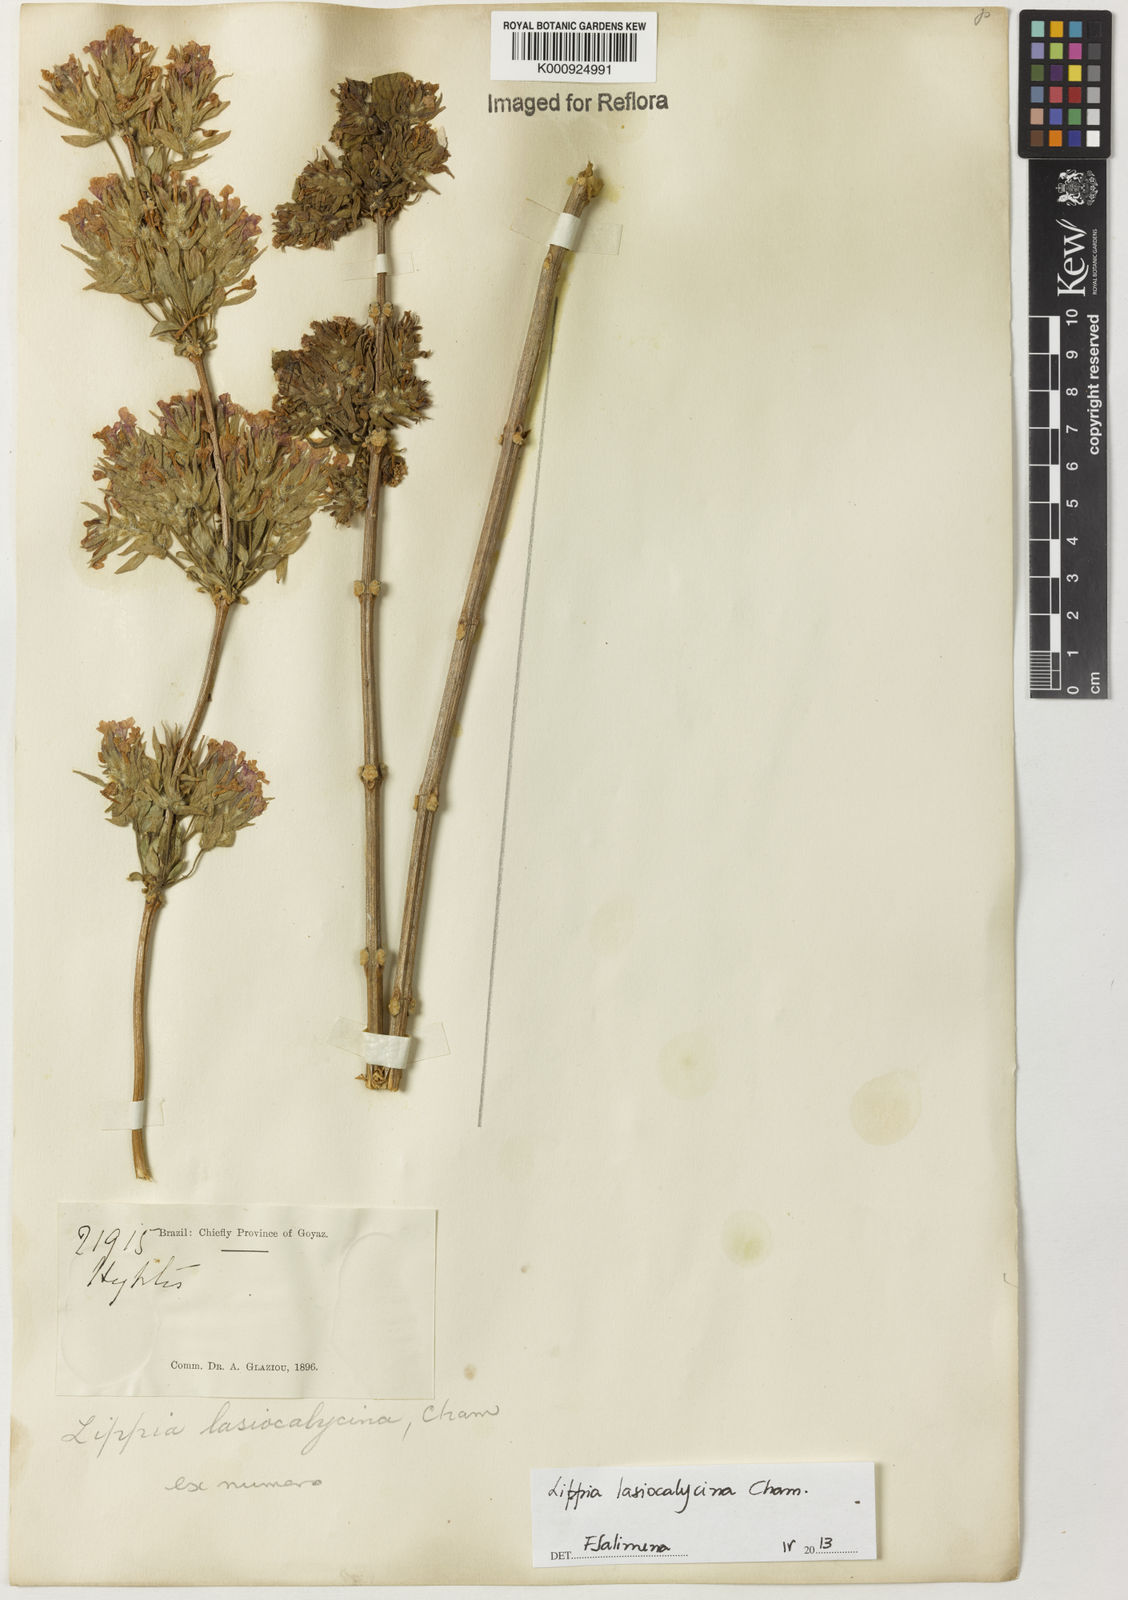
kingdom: Plantae
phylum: Tracheophyta
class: Magnoliopsida
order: Lamiales
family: Verbenaceae
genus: Lippia
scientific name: Lippia lasiocalycina
